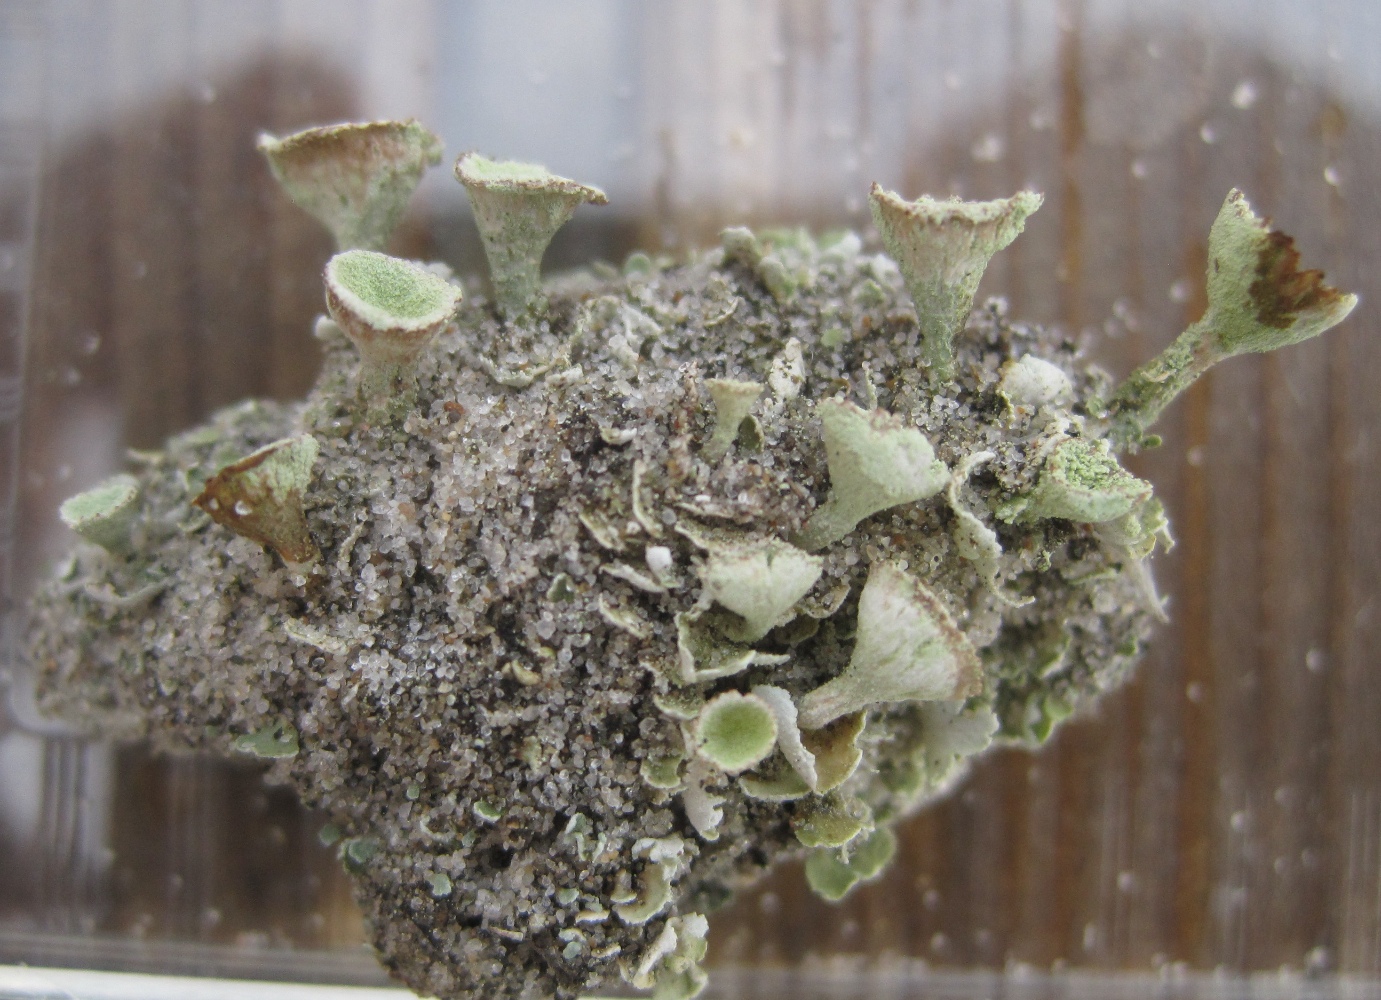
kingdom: Fungi
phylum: Ascomycota
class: Lecanoromycetes
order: Lecanorales
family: Cladoniaceae
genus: Cladonia
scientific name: Cladonia humilis
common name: lav bægerlav
